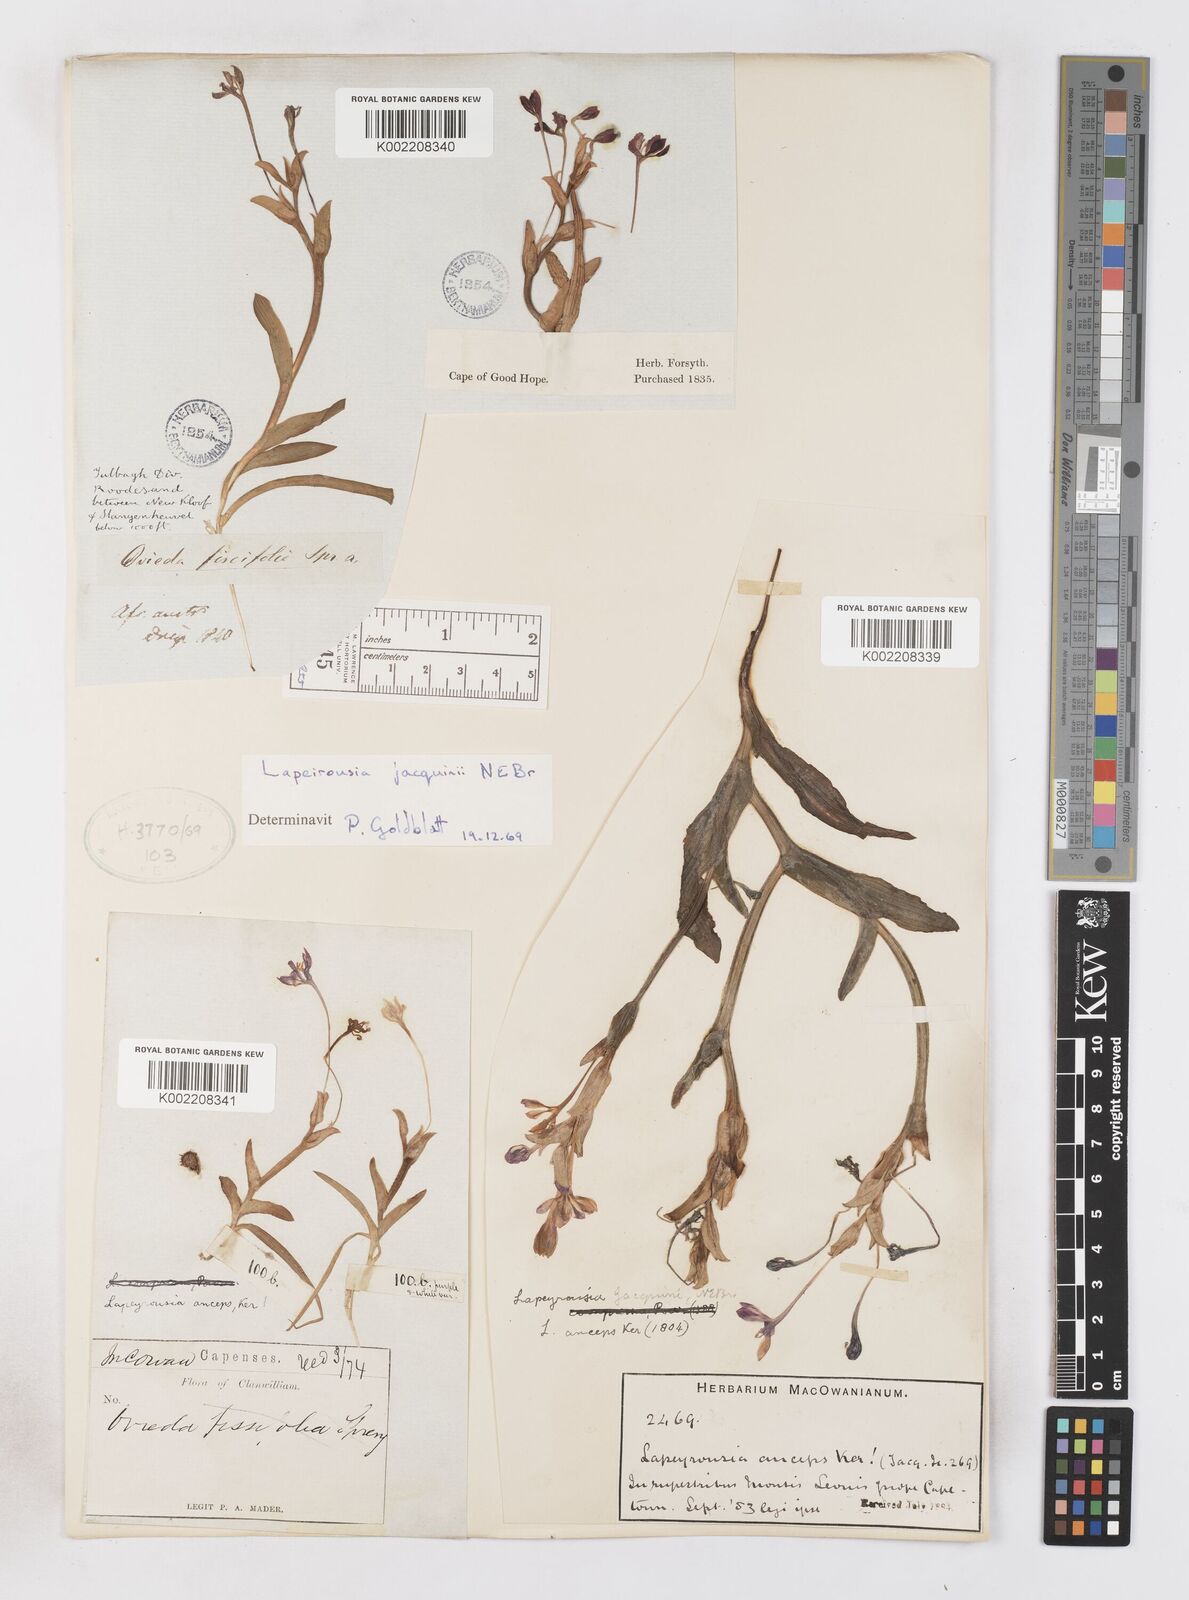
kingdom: Plantae
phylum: Tracheophyta
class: Liliopsida
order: Asparagales
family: Iridaceae
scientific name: Iridaceae
